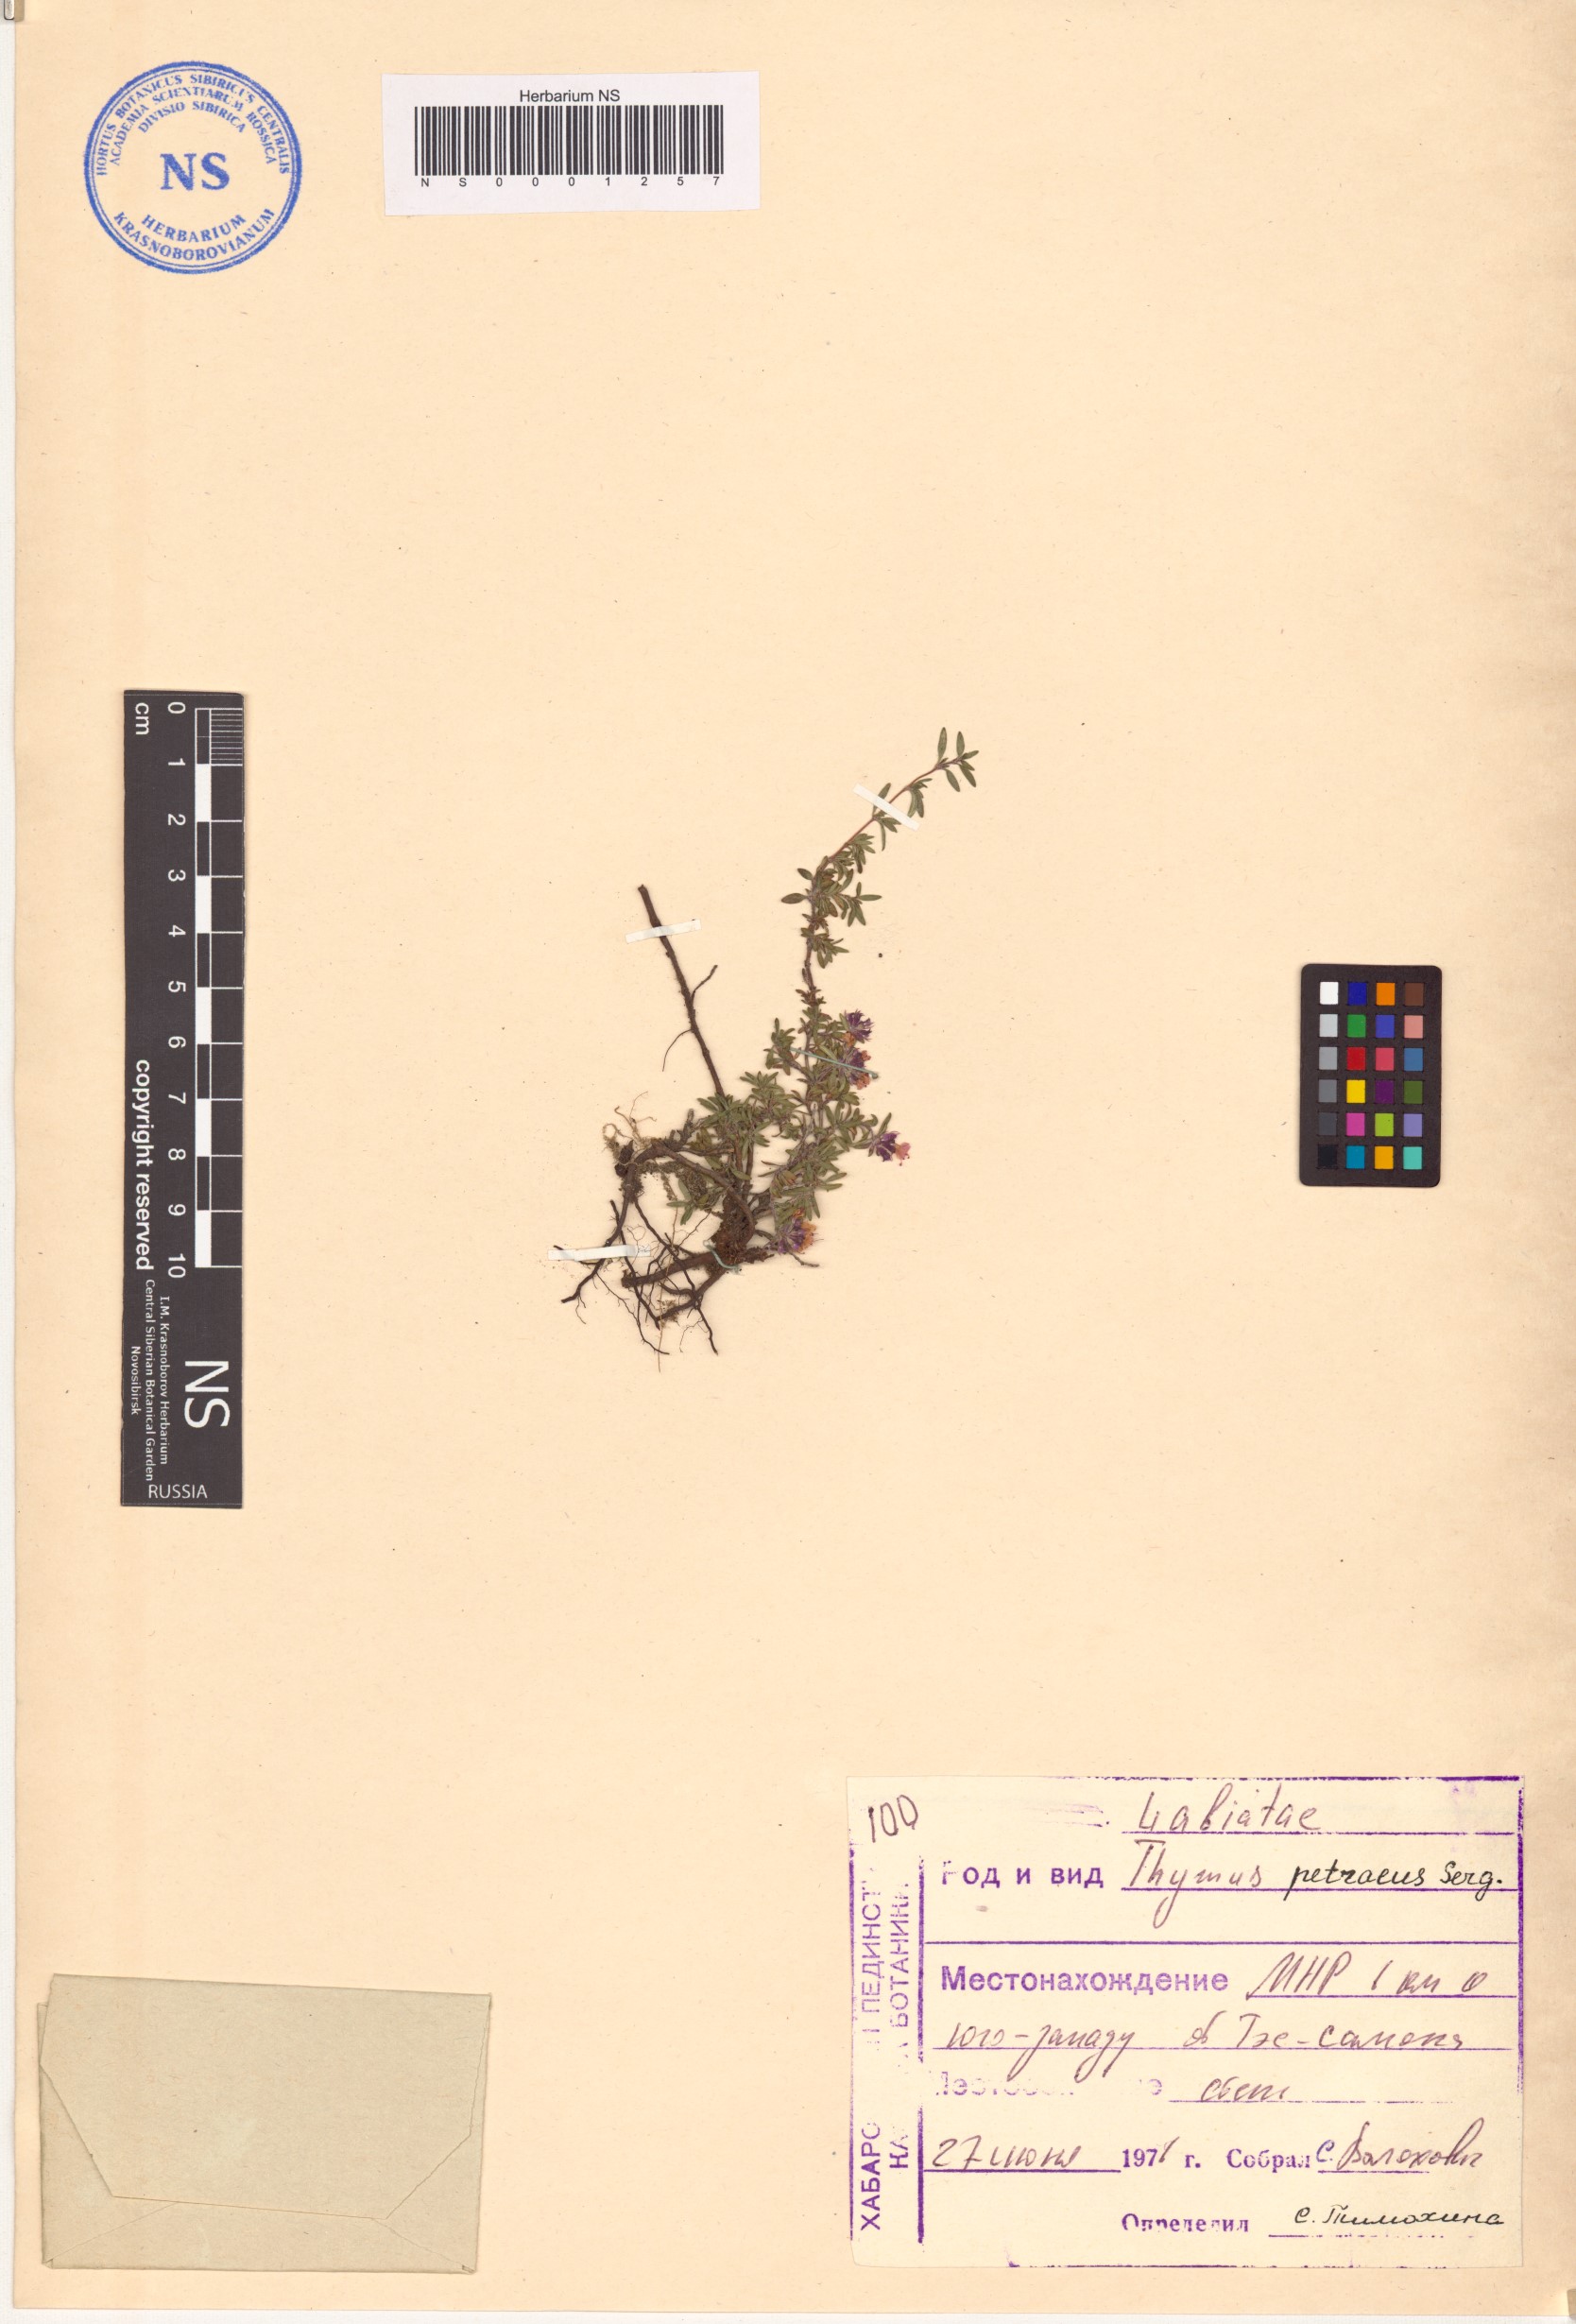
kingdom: Plantae
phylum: Tracheophyta
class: Magnoliopsida
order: Lamiales
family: Lamiaceae
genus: Thymus
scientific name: Thymus petraeus
